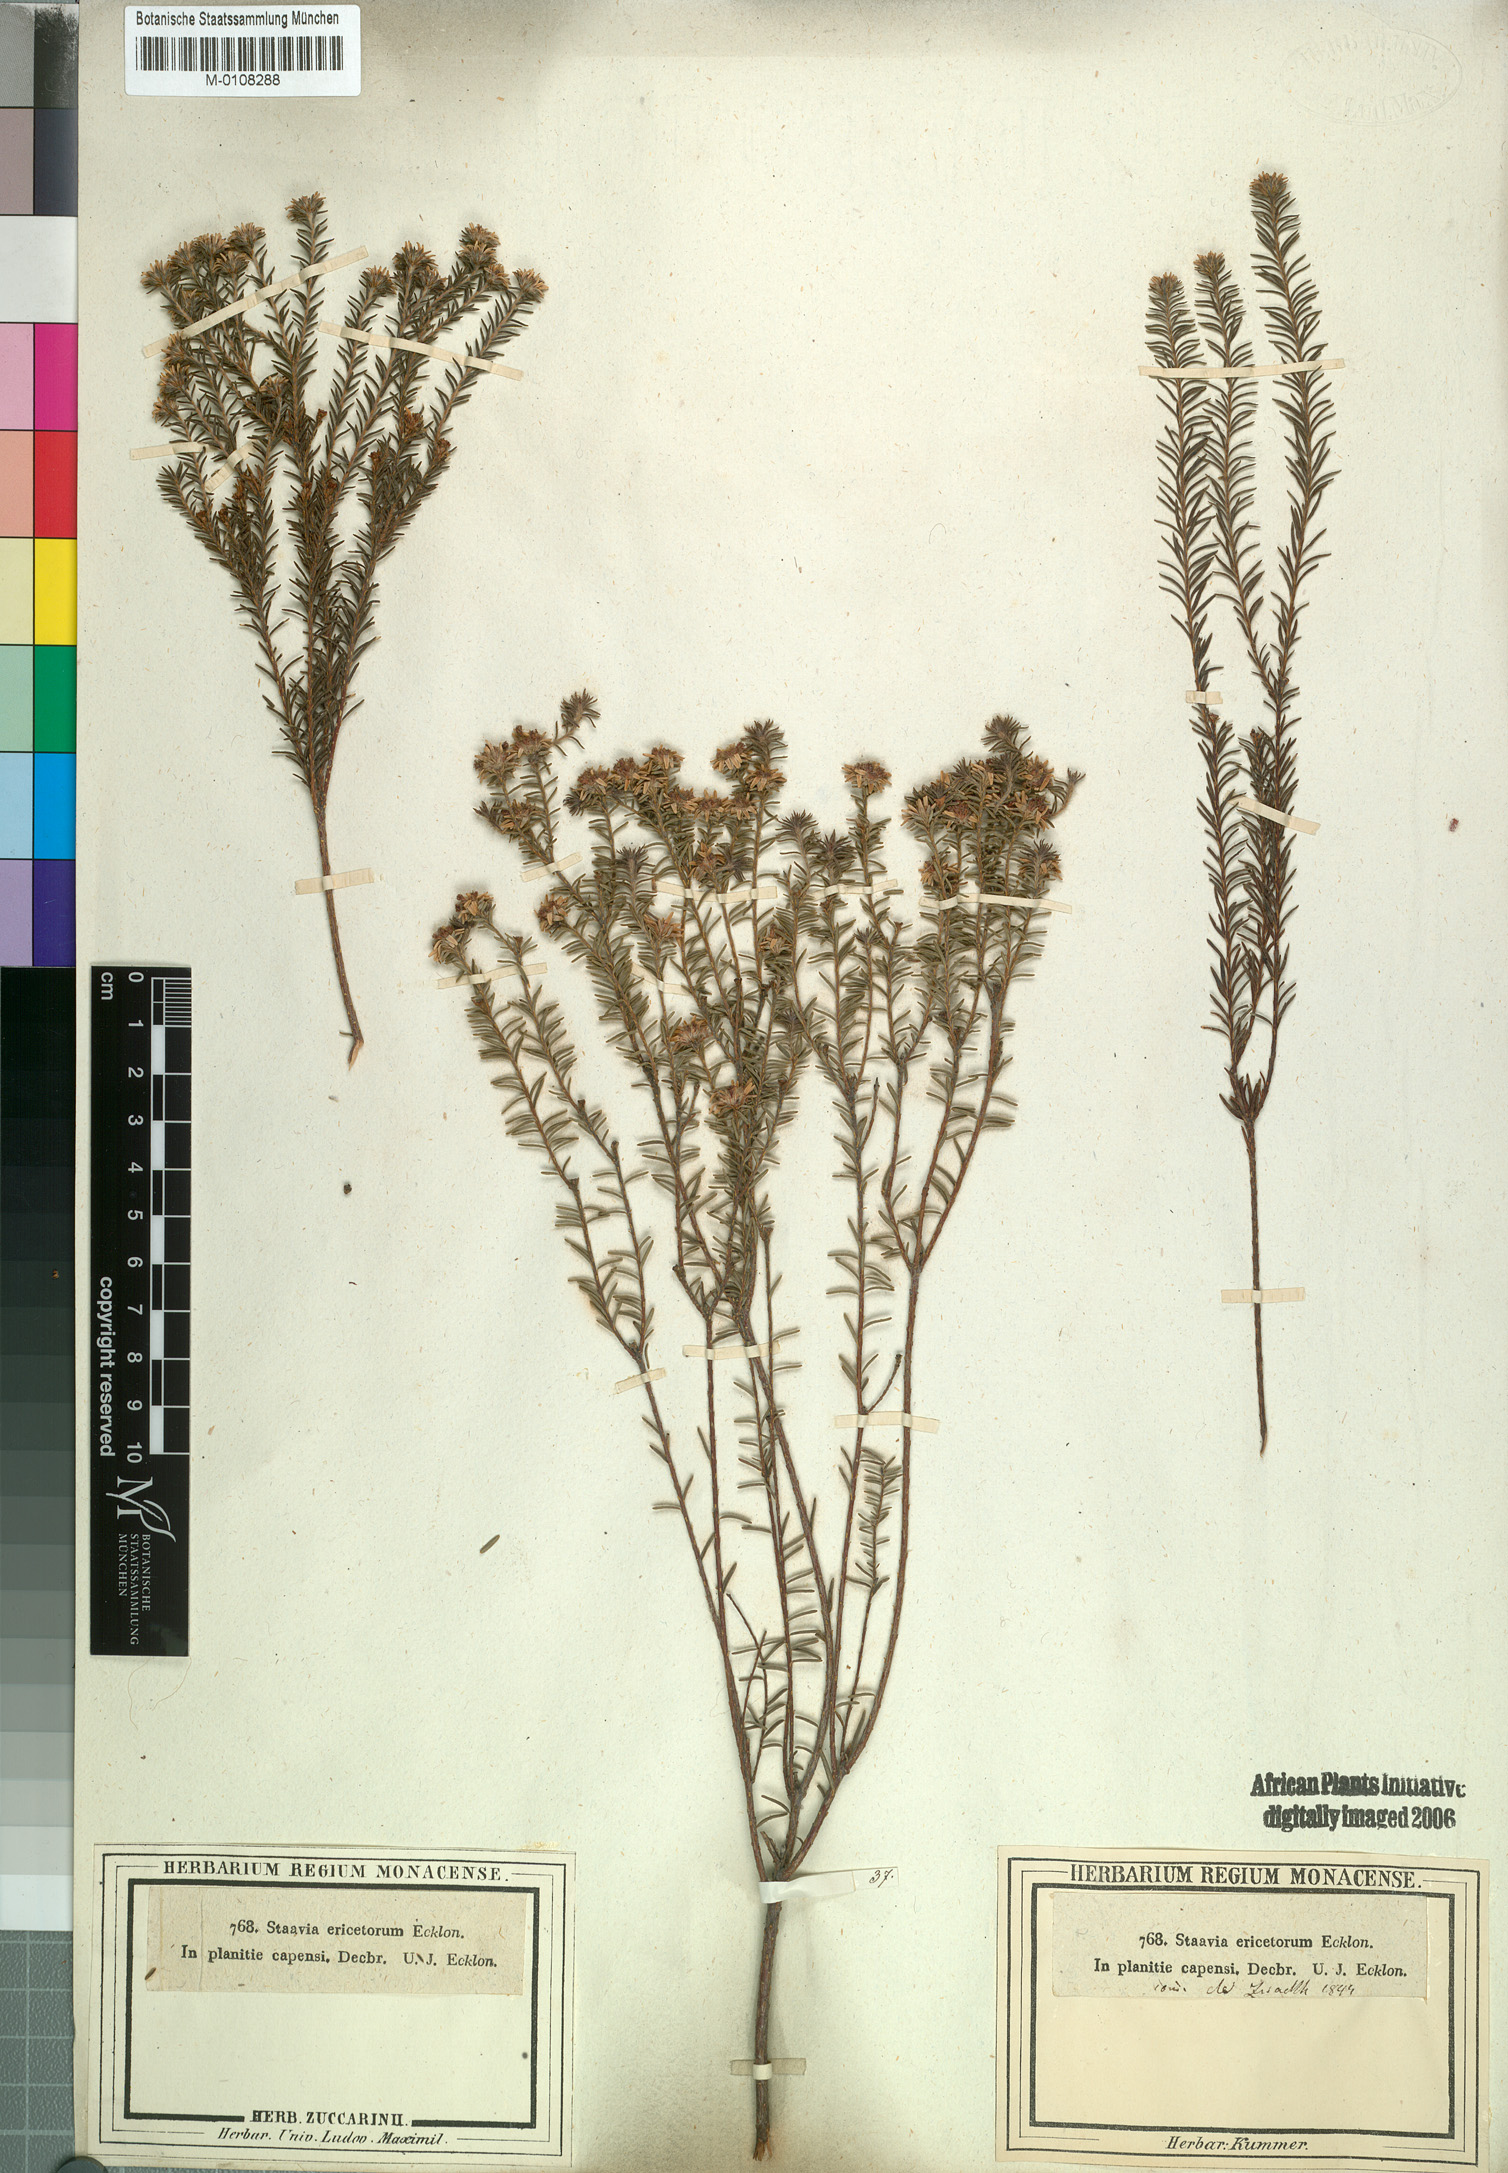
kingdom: Plantae
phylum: Tracheophyta
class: Magnoliopsida
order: Bruniales
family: Bruniaceae
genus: Staavia
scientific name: Staavia radiata
